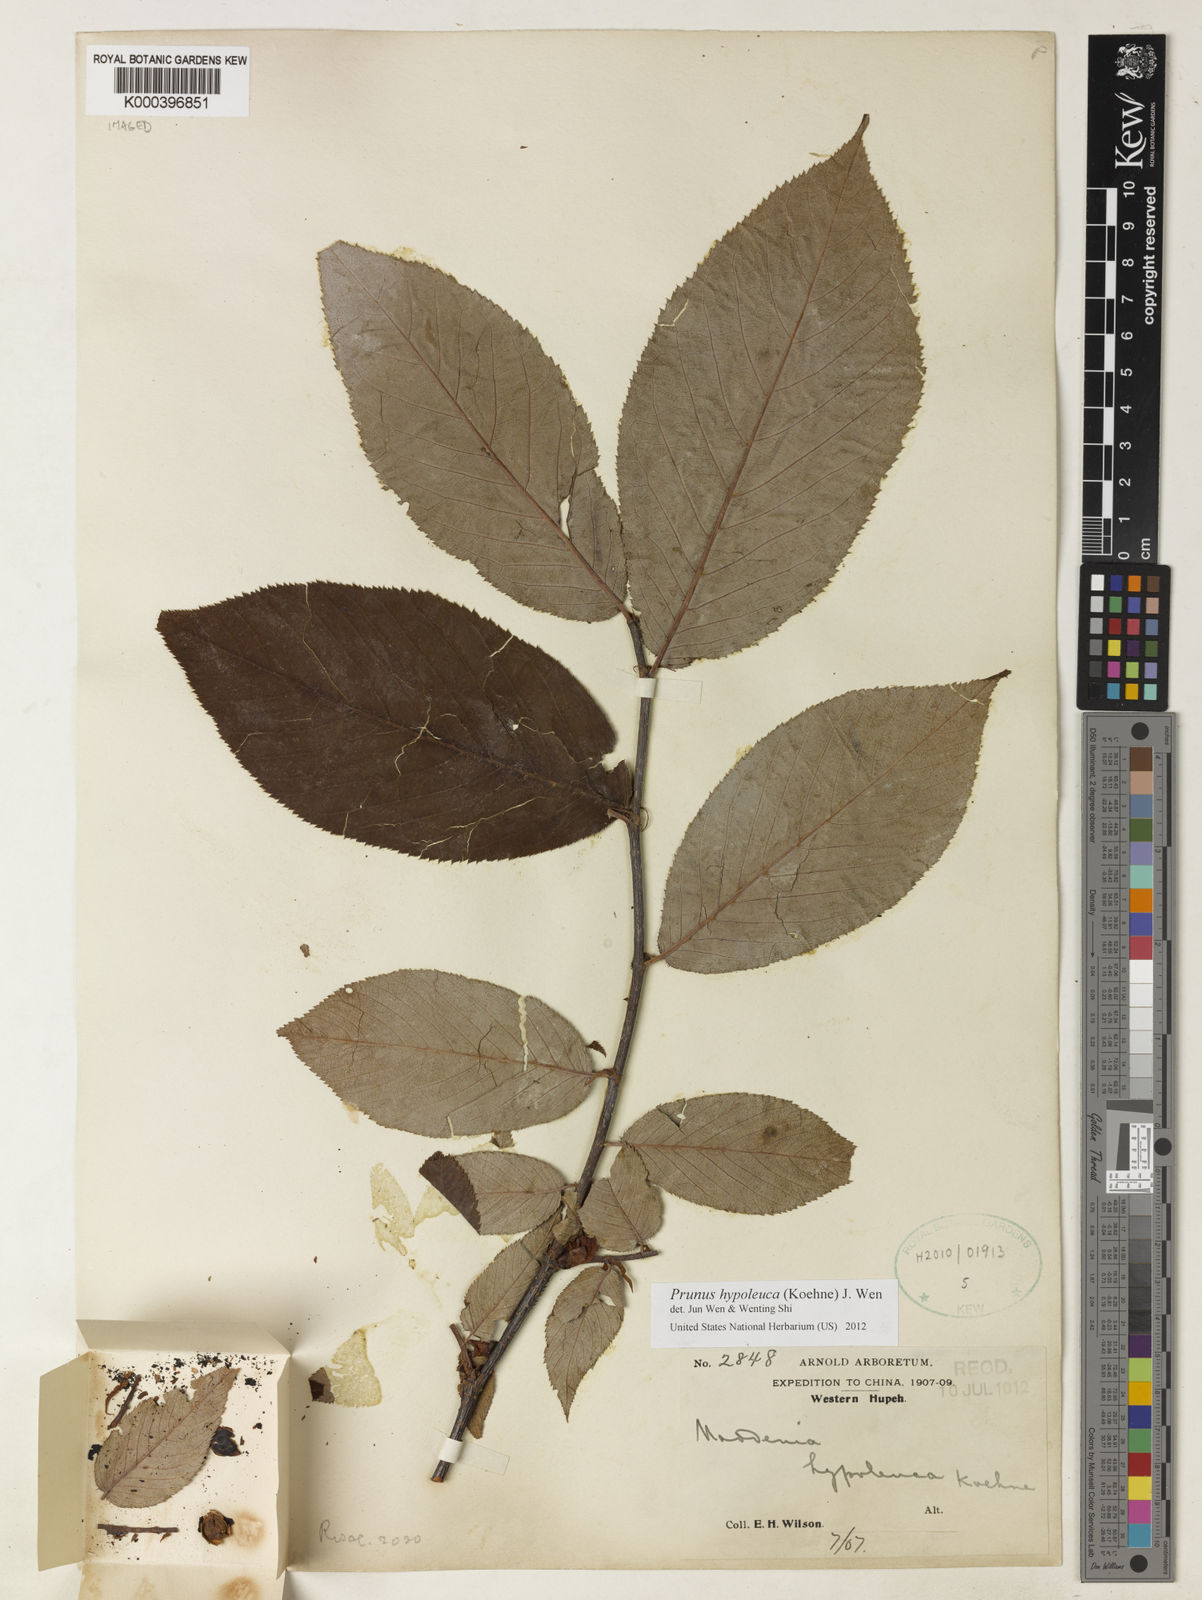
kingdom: Plantae
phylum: Tracheophyta
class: Magnoliopsida
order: Rosales
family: Rosaceae
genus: Prunus
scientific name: Prunus hypoleuca
